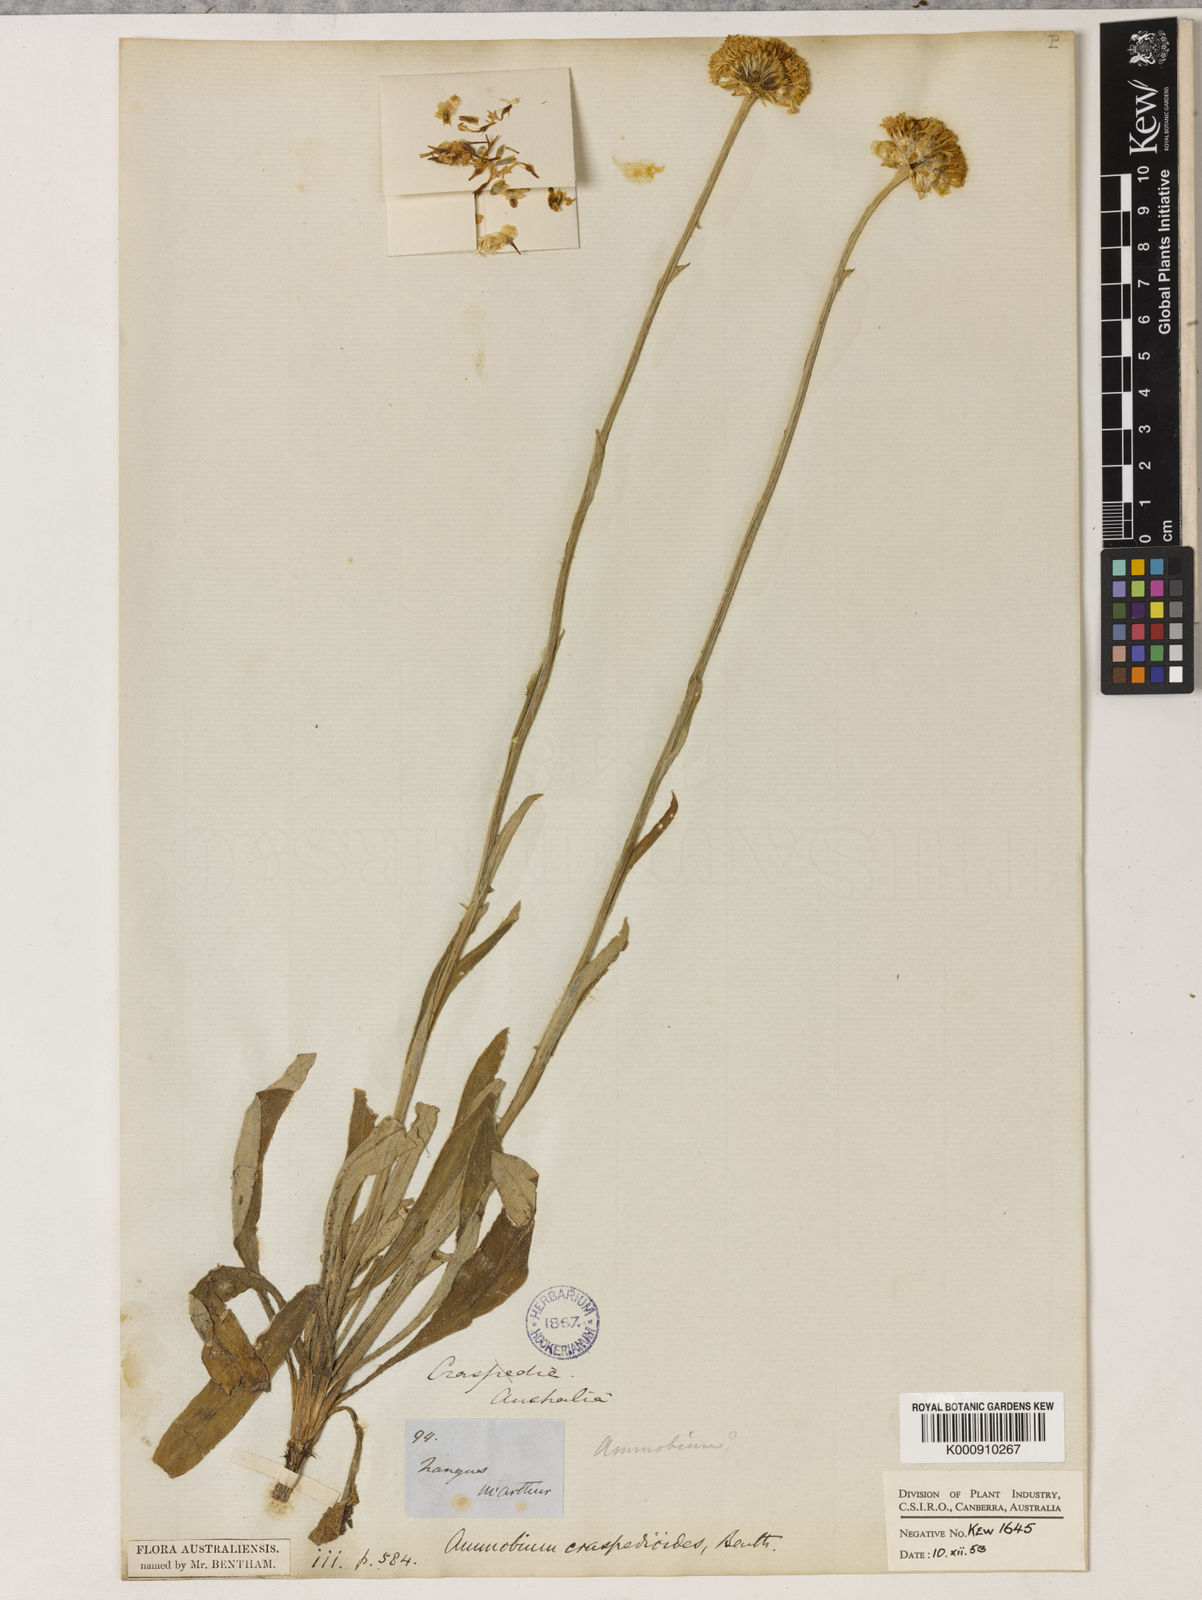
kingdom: Plantae
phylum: Tracheophyta
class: Magnoliopsida
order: Asterales
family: Asteraceae
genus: Ammobium
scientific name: Ammobium craspedioides
